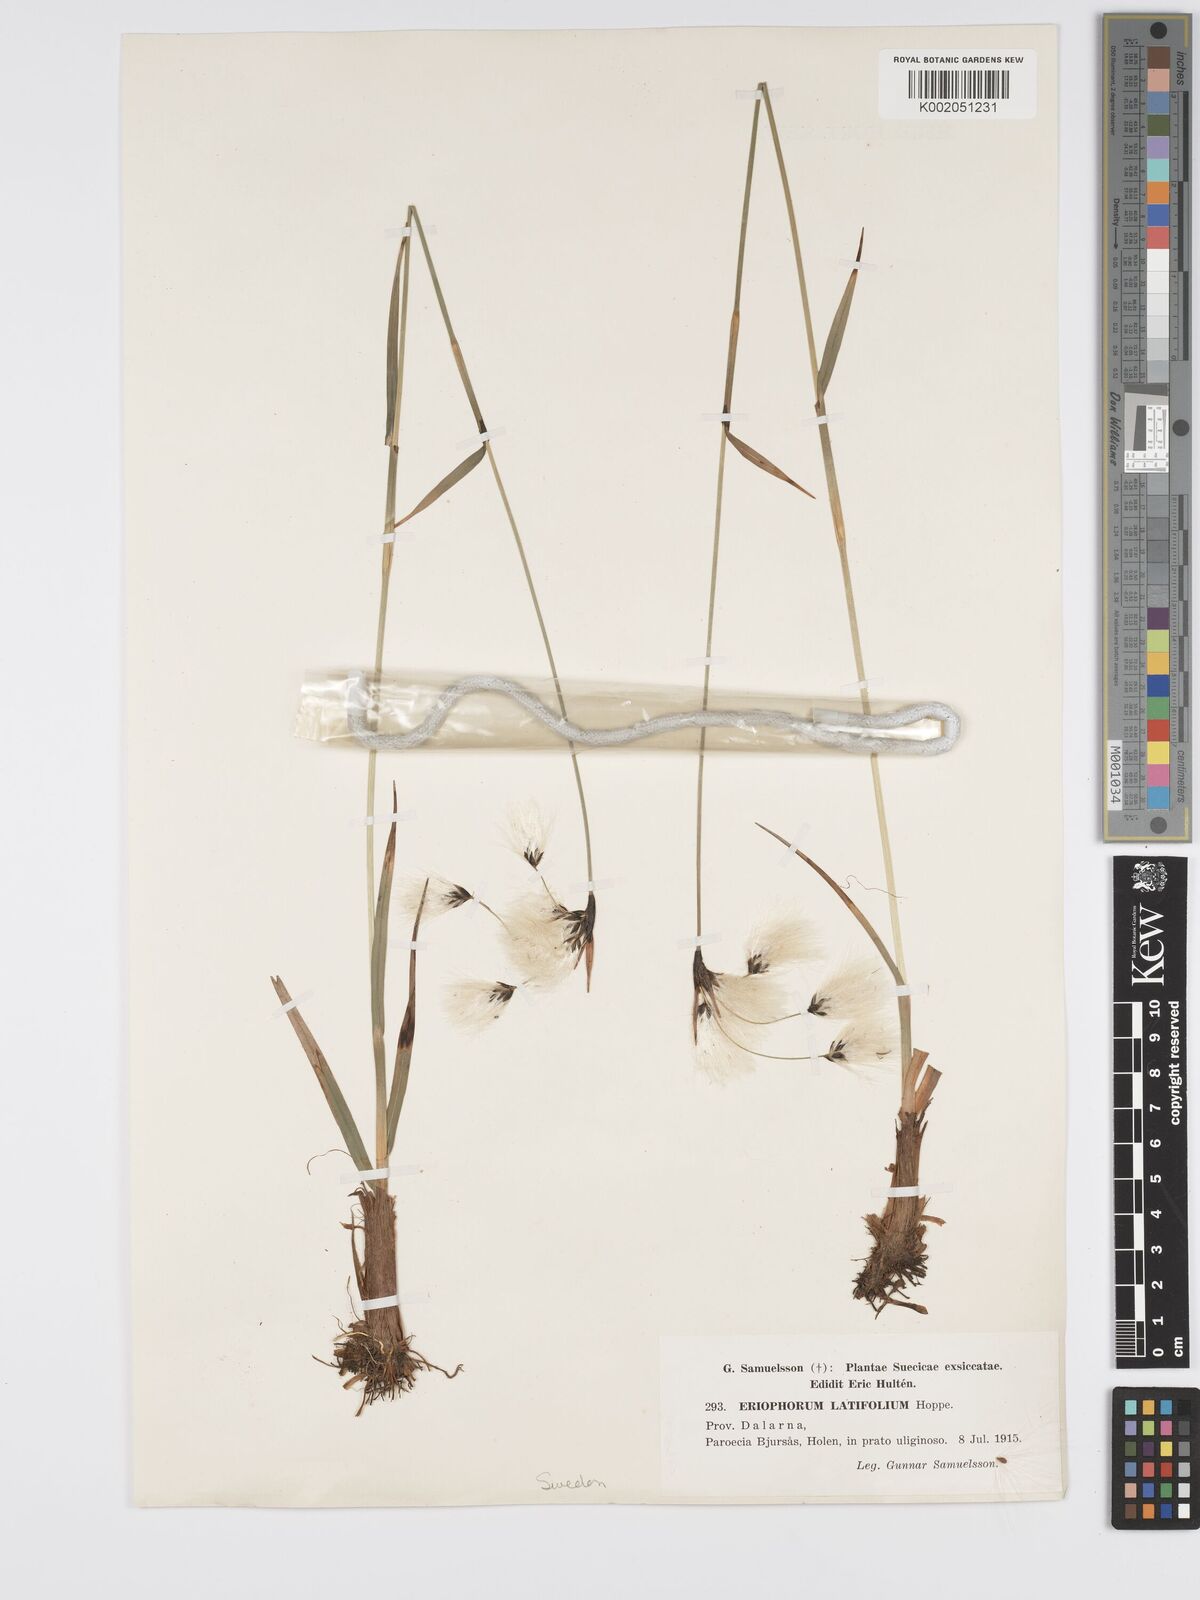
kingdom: Plantae
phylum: Tracheophyta
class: Liliopsida
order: Poales
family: Cyperaceae
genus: Eriophorum
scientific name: Eriophorum latifolium
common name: Broad-leaved cottongrass
